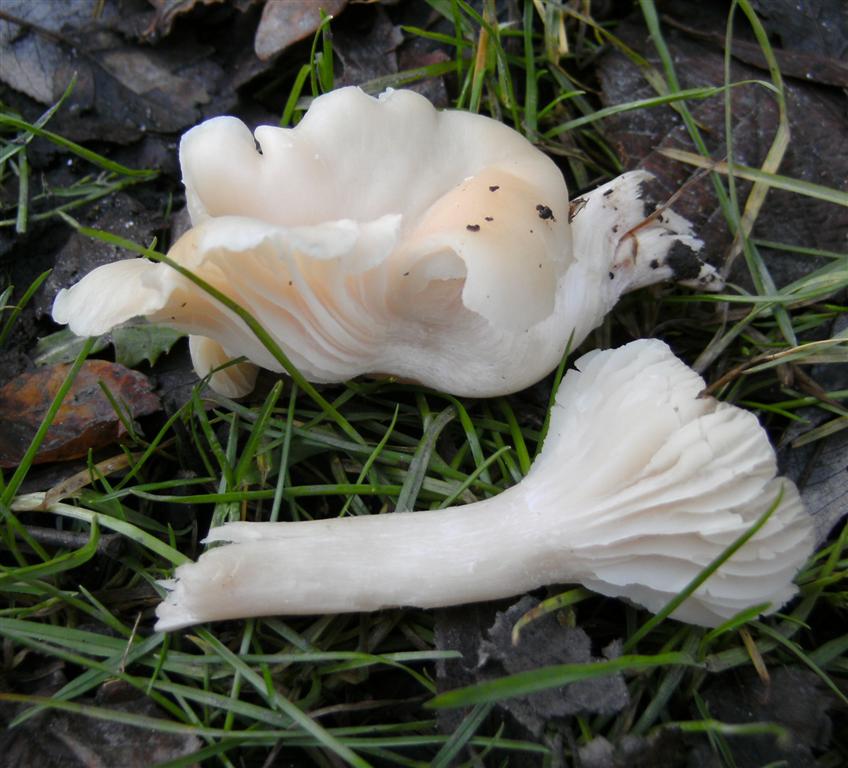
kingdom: Fungi
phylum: Basidiomycota
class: Agaricomycetes
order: Agaricales
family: Hygrophoraceae
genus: Cuphophyllus
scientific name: Cuphophyllus virgineus
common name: snehvid vokshat
